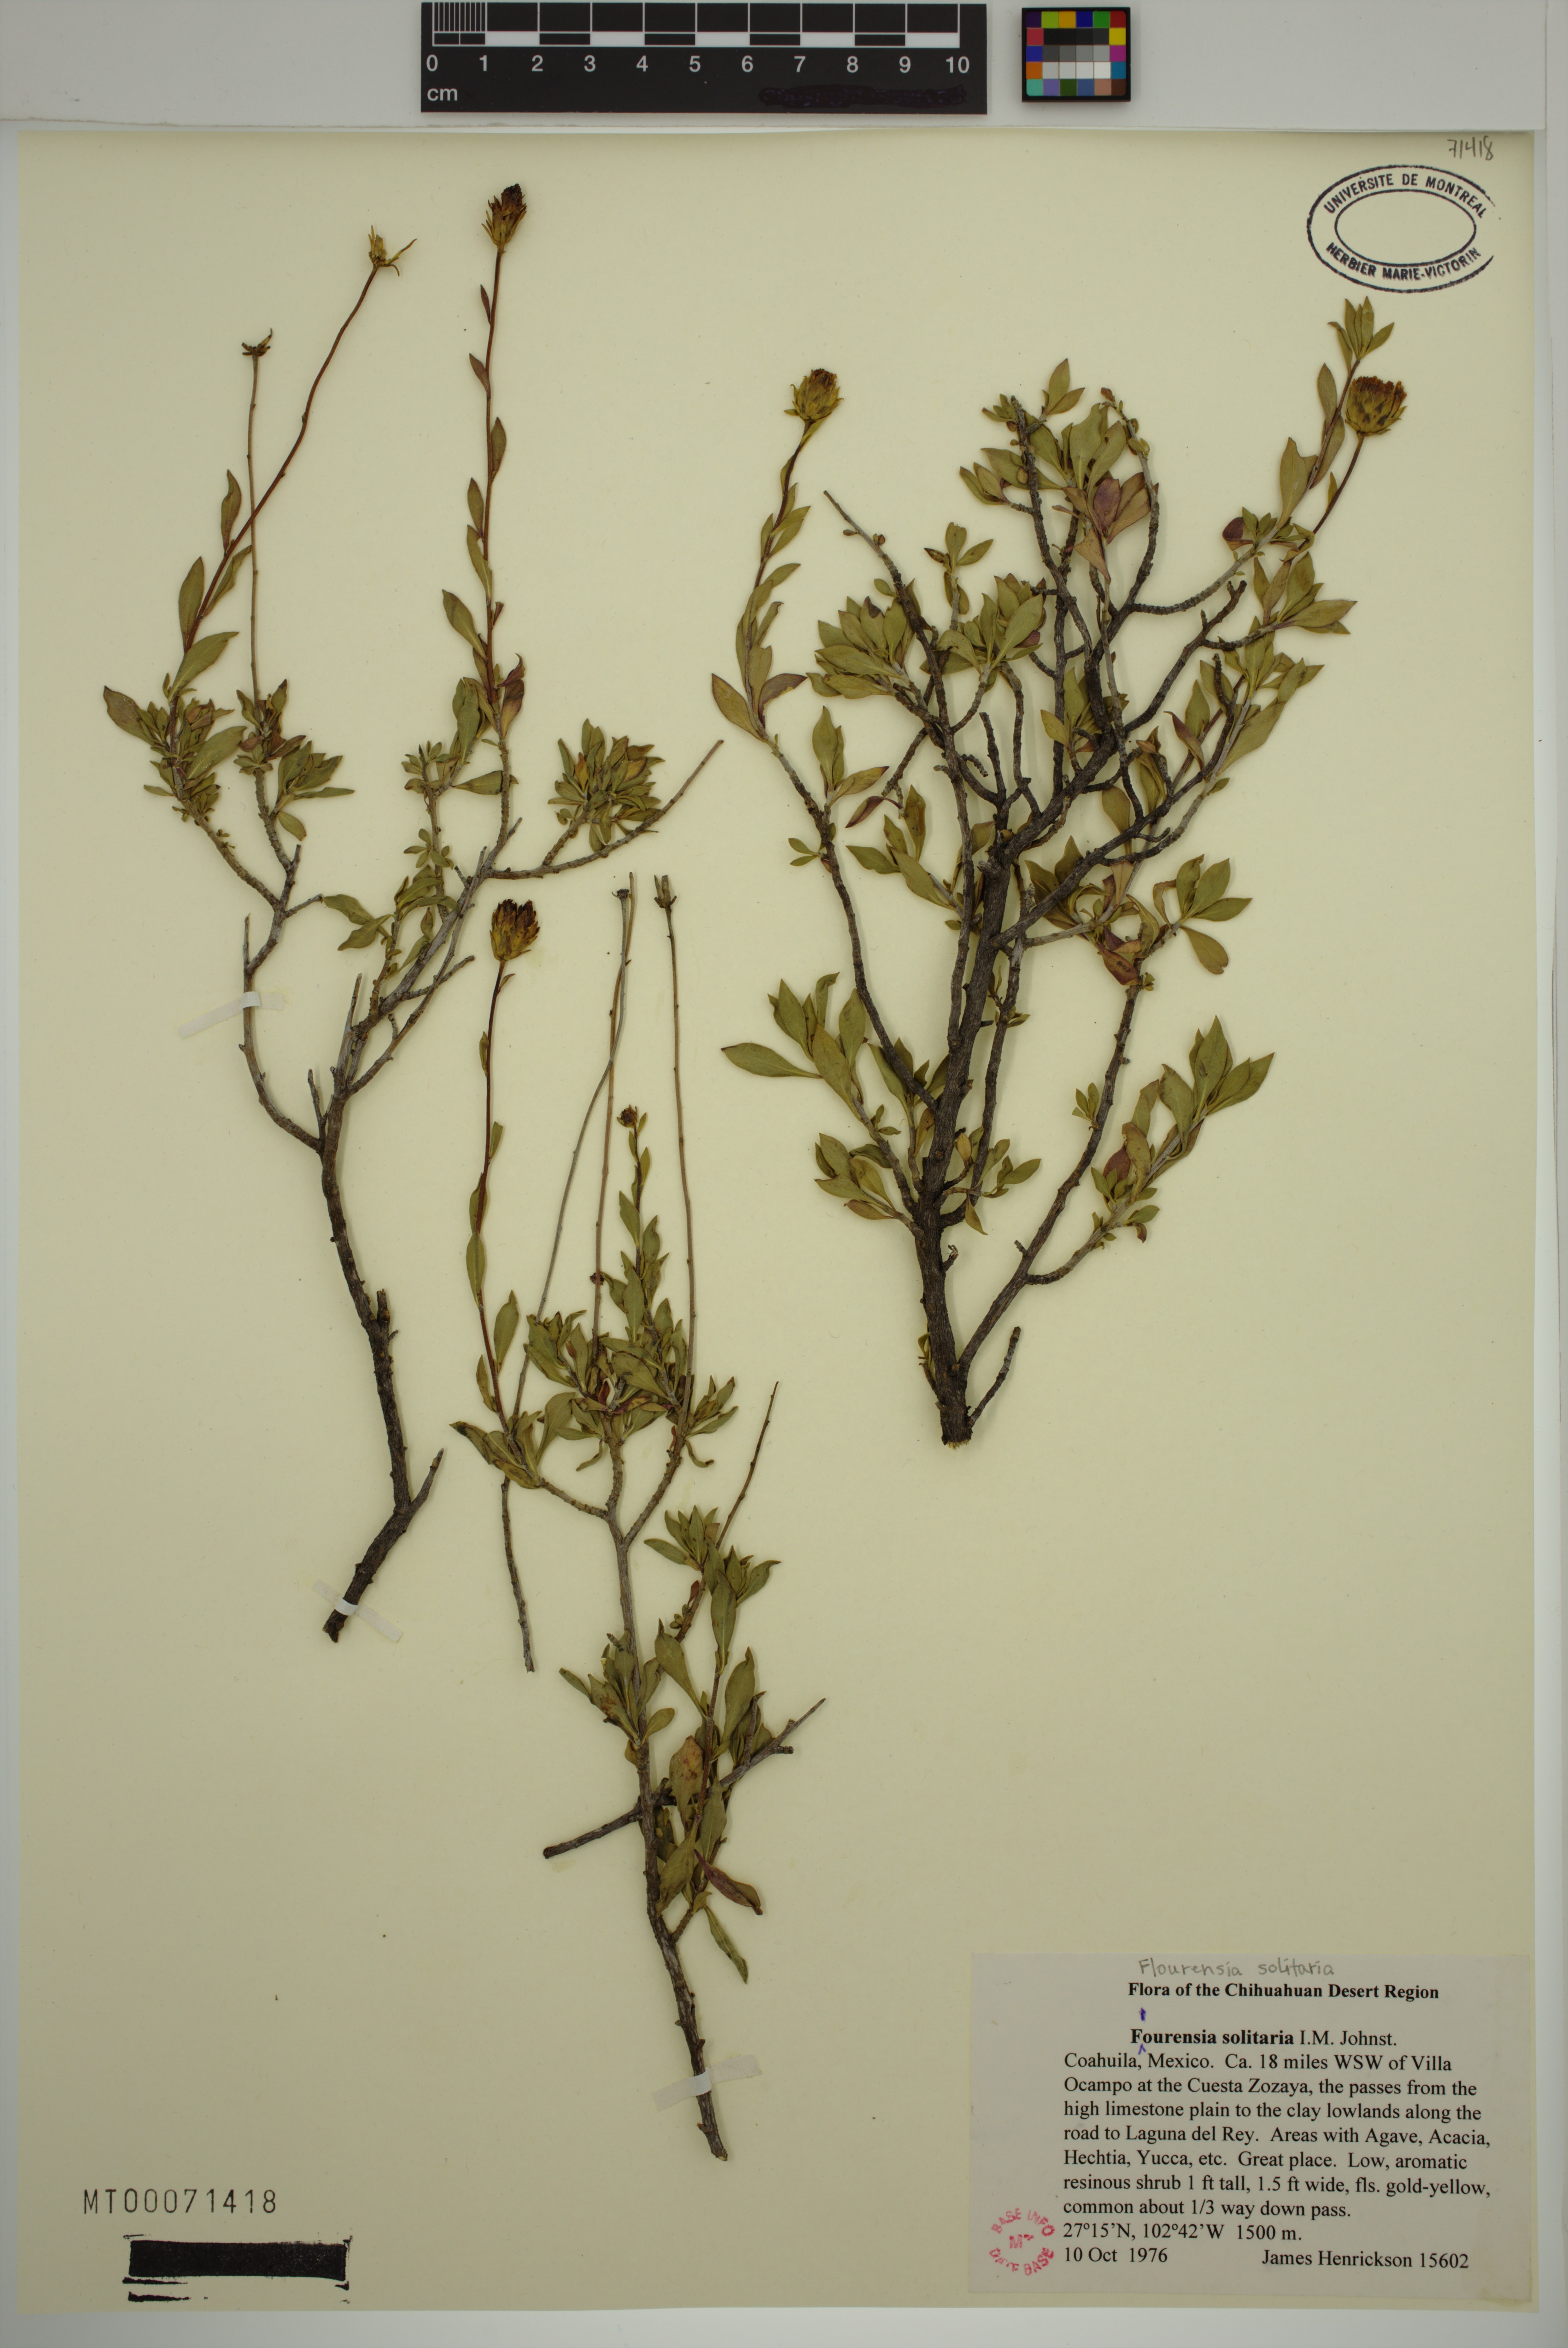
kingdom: Plantae
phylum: Tracheophyta
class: Magnoliopsida
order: Asterales
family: Asteraceae
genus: Flourensia
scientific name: Flourensia solitaria
